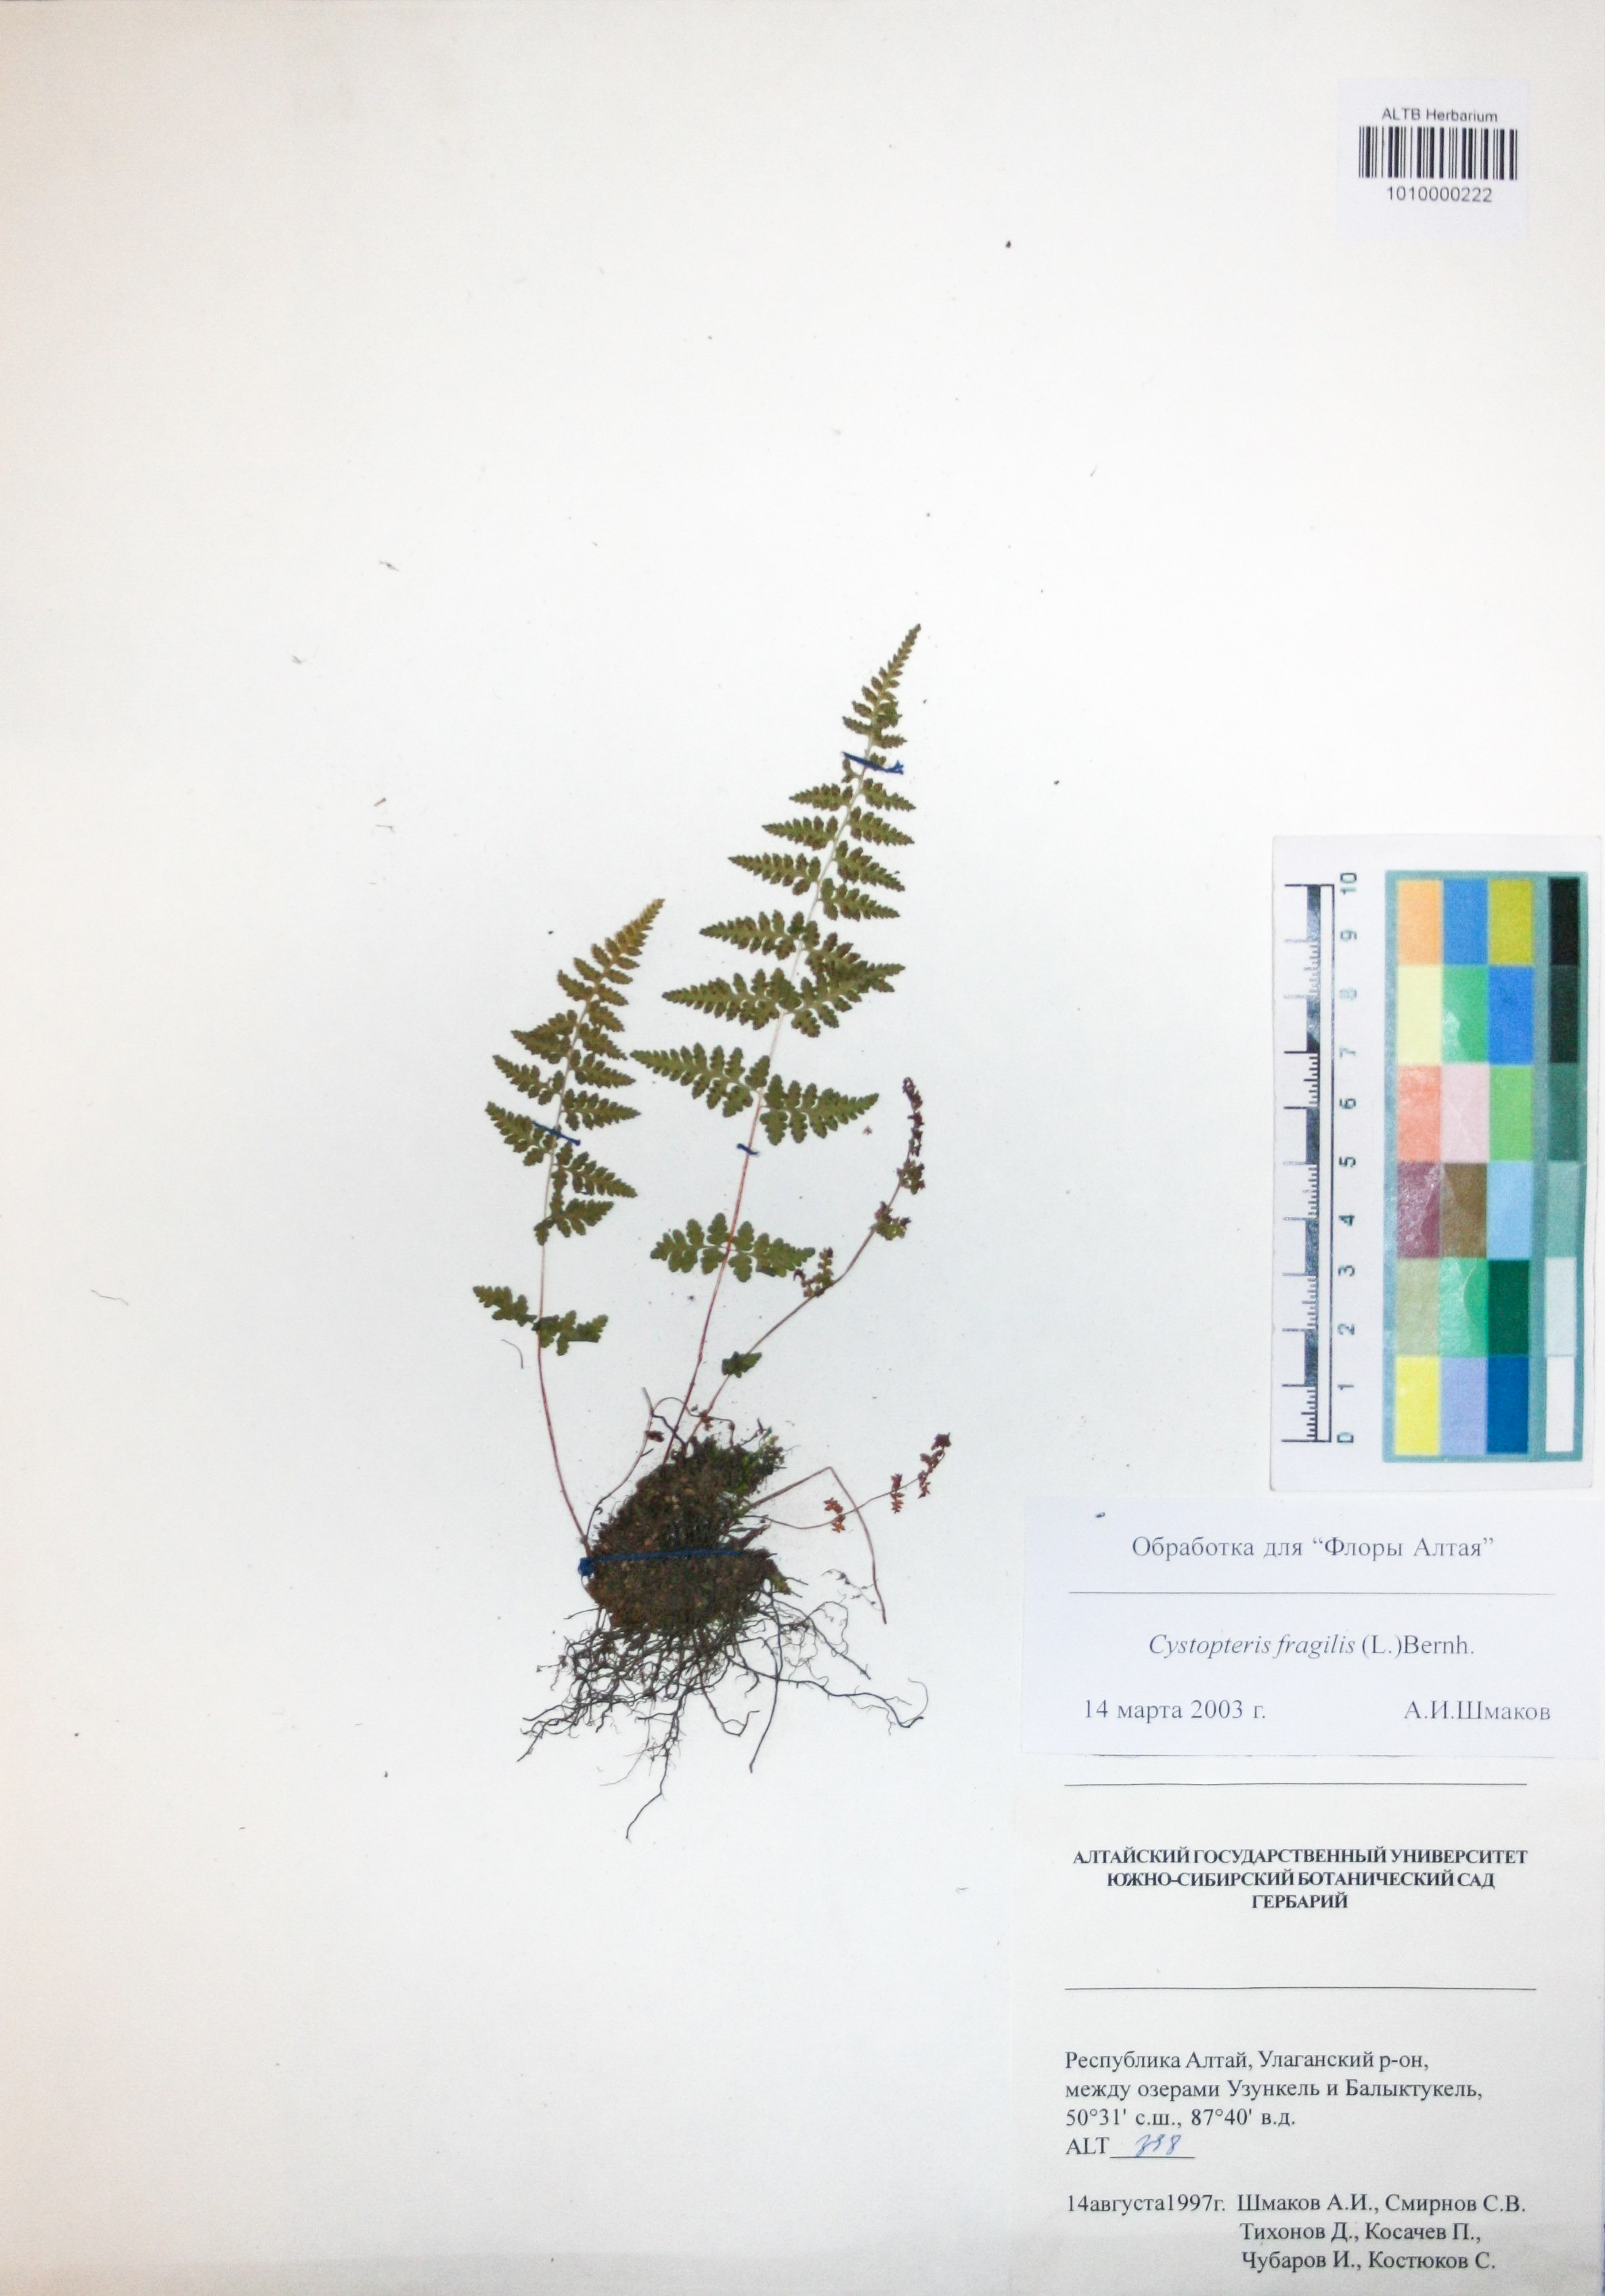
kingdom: Plantae
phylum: Tracheophyta
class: Polypodiopsida
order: Polypodiales
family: Cystopteridaceae
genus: Cystopteris
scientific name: Cystopteris fragilis
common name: Brittle bladder fern
